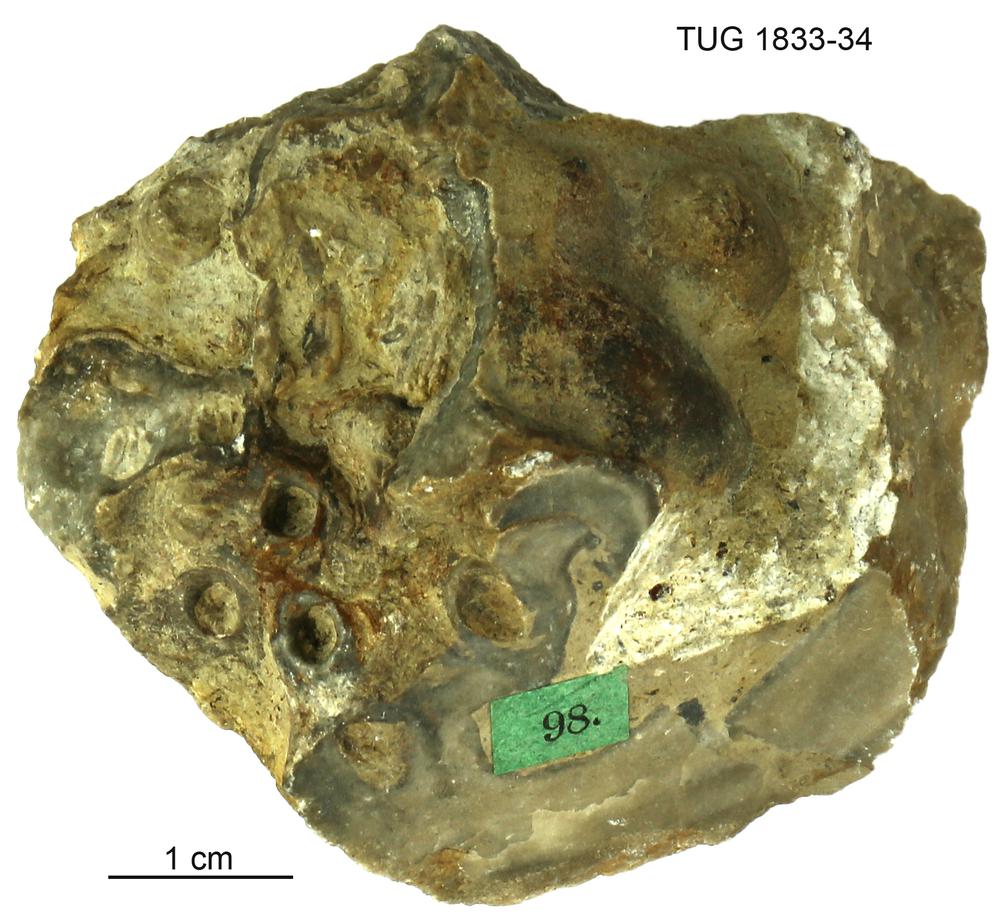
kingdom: Animalia
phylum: Porifera
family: Stromatoporidae
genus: Stromatopora
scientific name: Stromatopora
